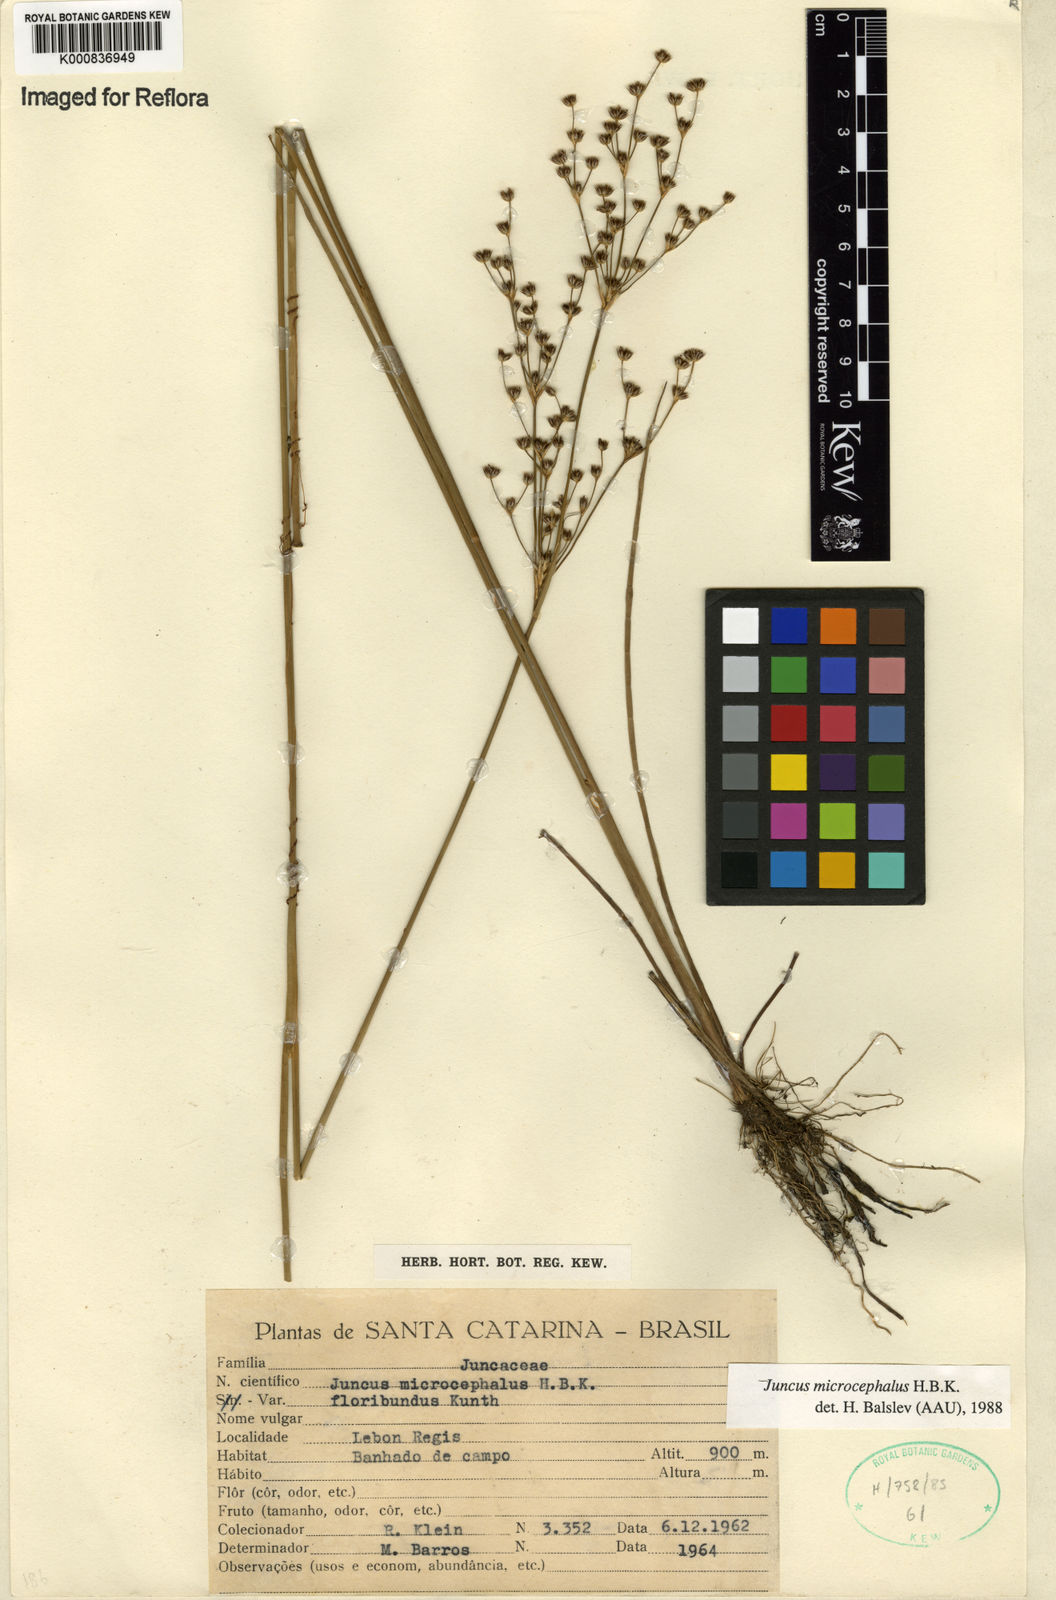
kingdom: Plantae
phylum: Tracheophyta
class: Liliopsida
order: Poales
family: Juncaceae
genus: Juncus
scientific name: Juncus microcephalus
